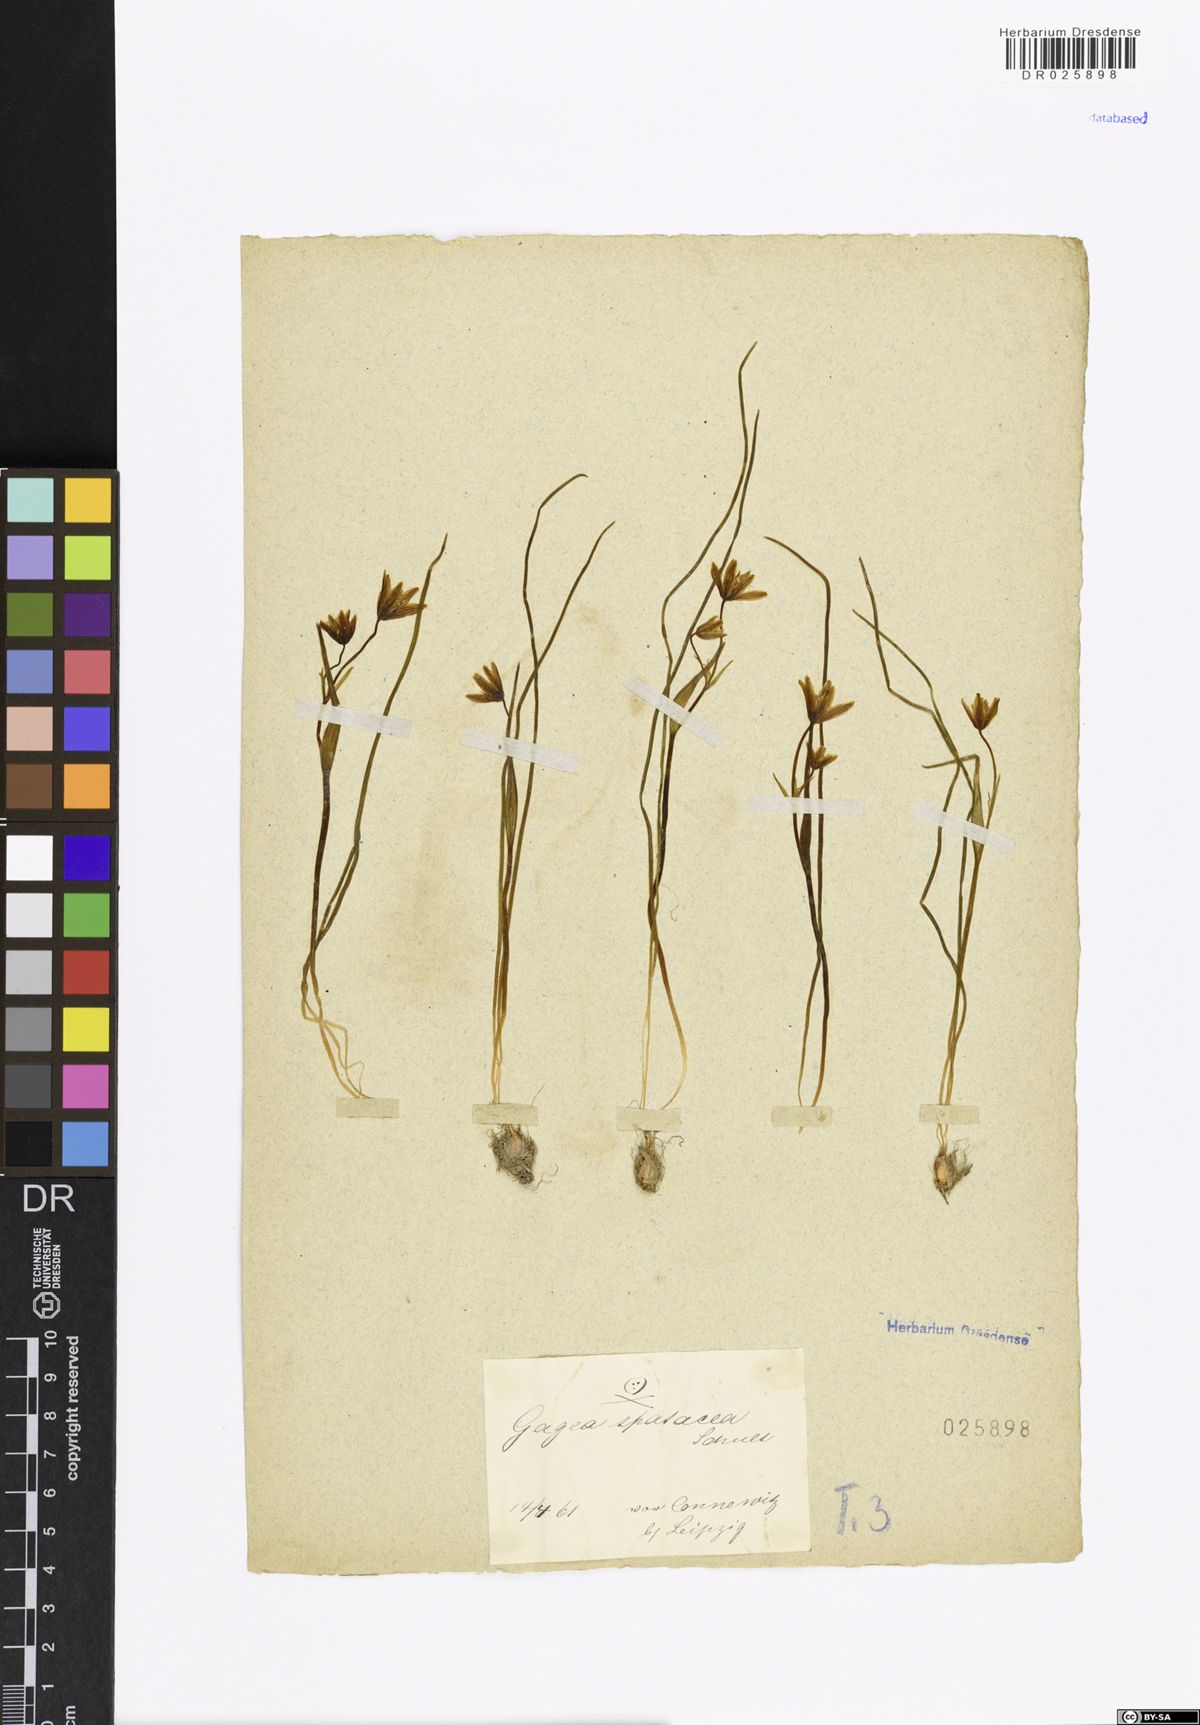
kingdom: Plantae
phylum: Tracheophyta
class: Liliopsida
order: Liliales
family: Liliaceae
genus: Gagea
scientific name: Gagea spathacea
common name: Belgian gagea
